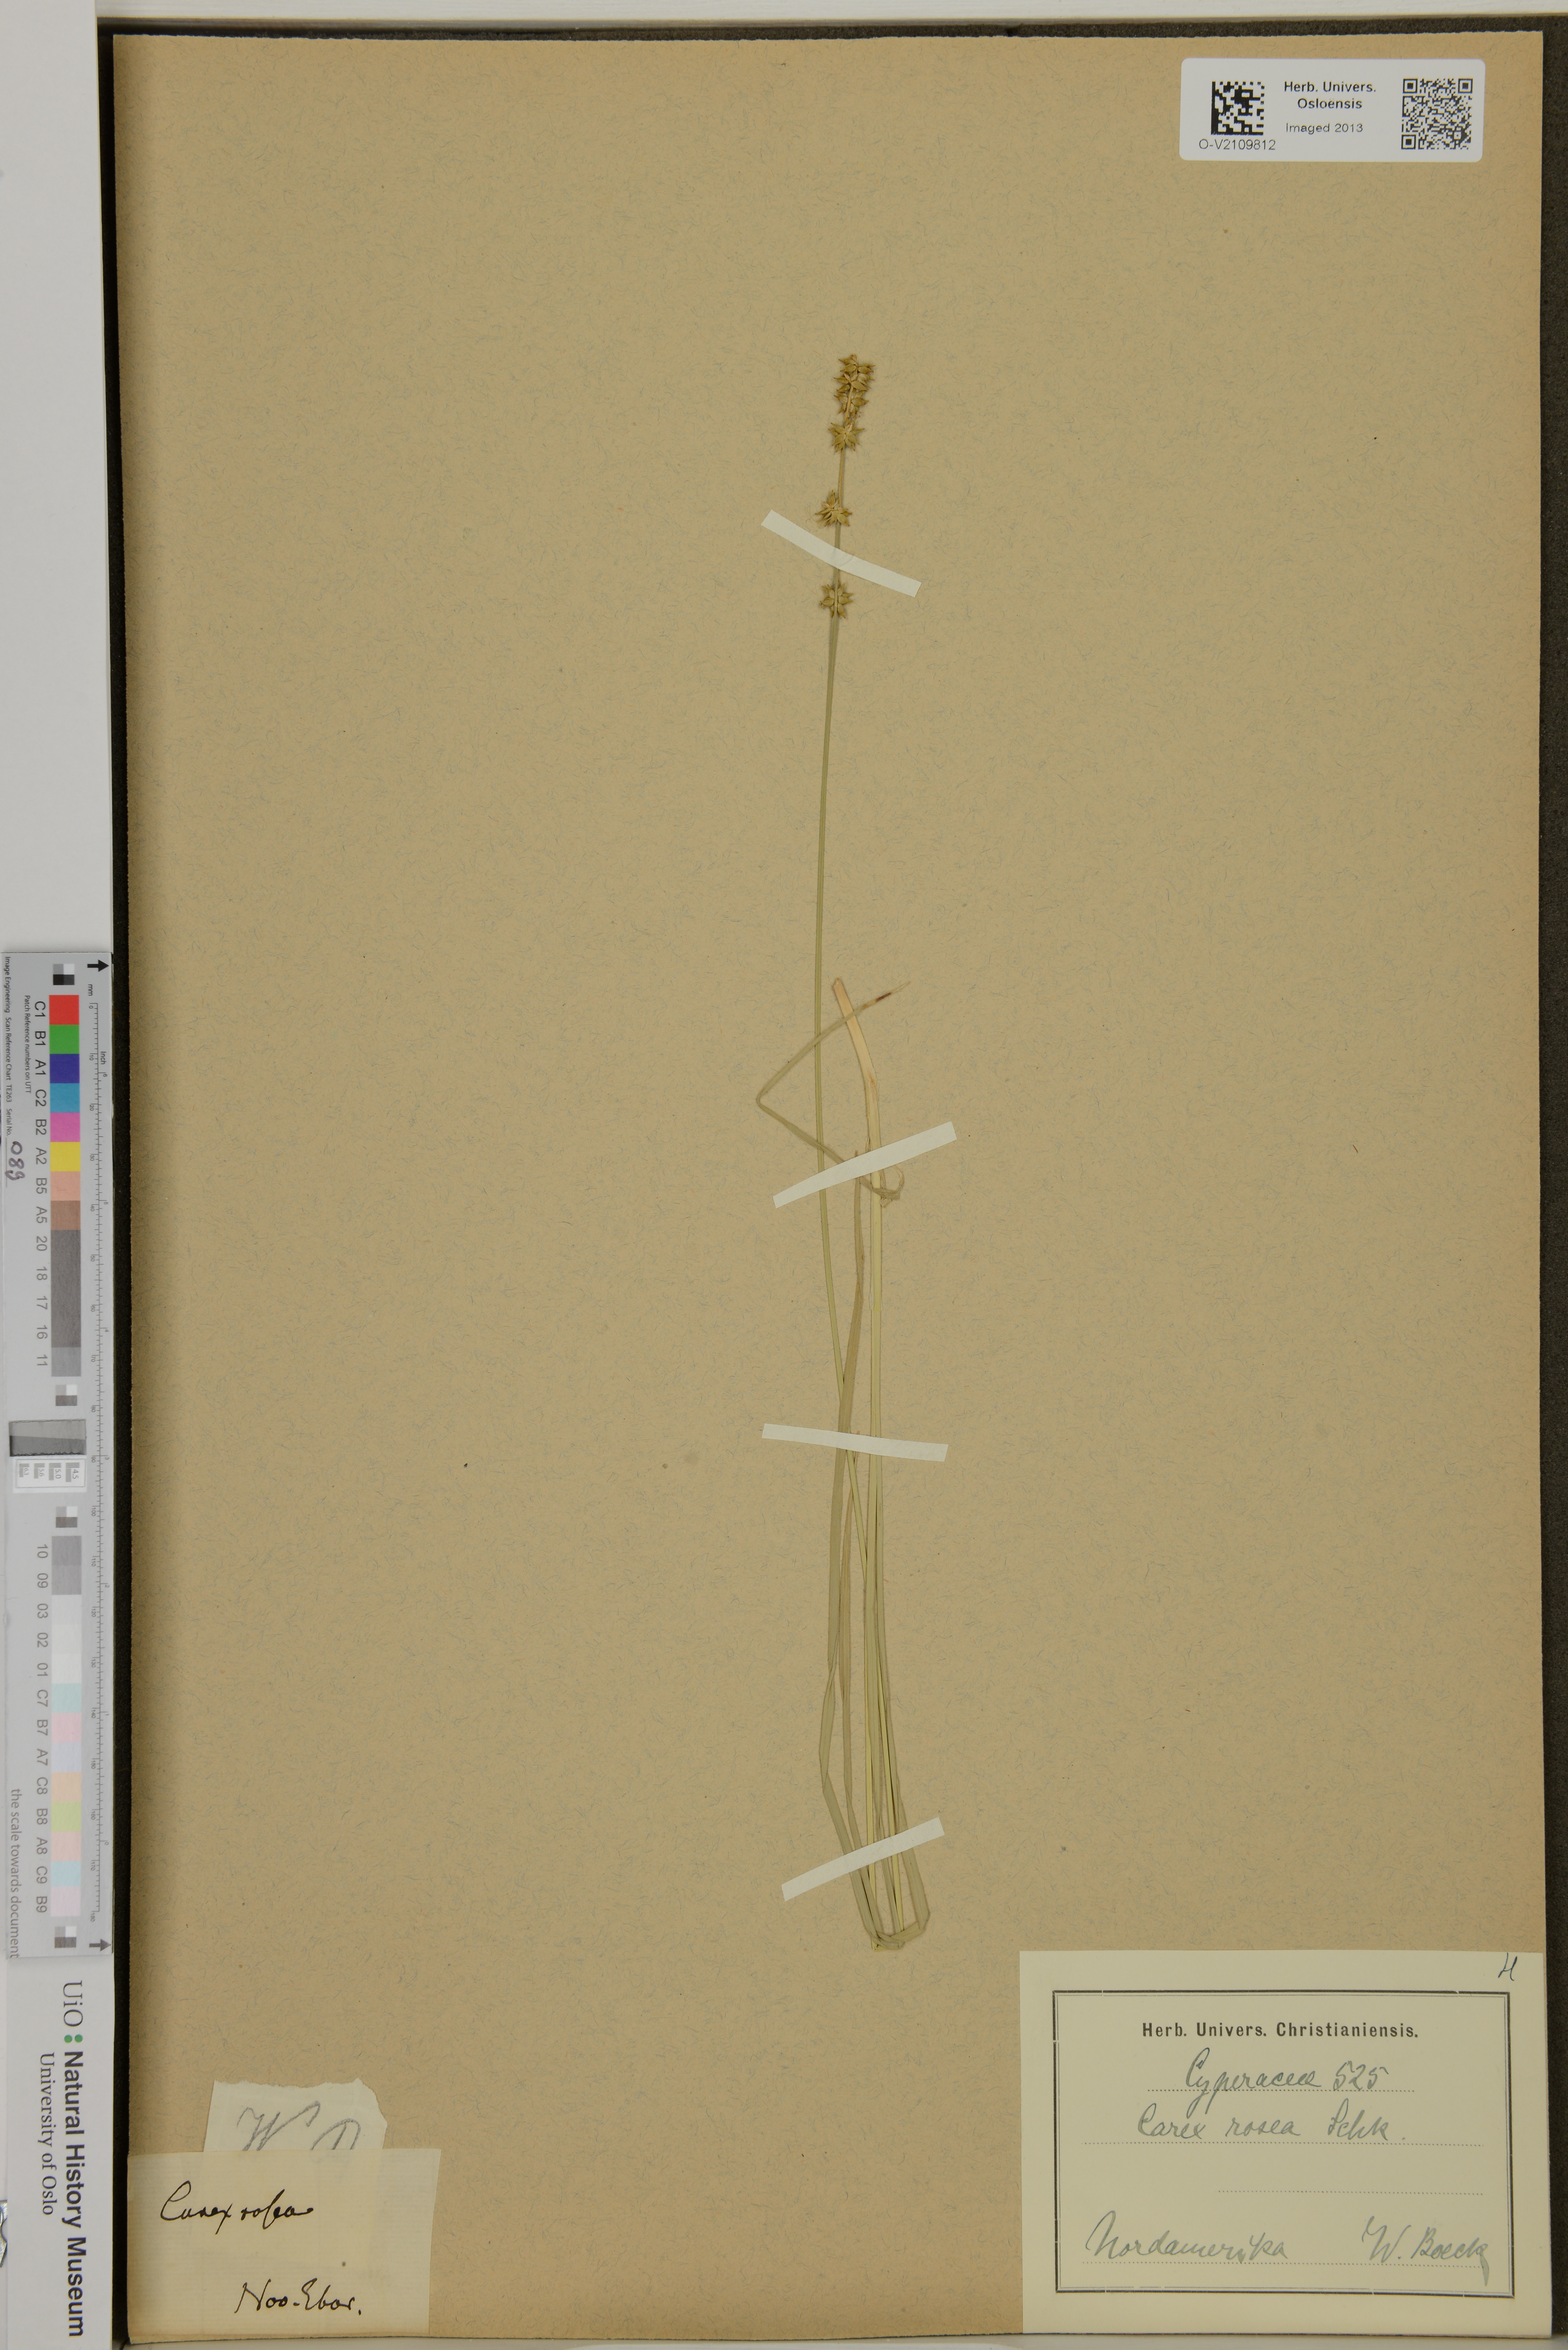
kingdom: Plantae
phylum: Tracheophyta
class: Liliopsida
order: Poales
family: Cyperaceae
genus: Carex
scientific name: Carex rosea
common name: Curly-styled wood sedge
